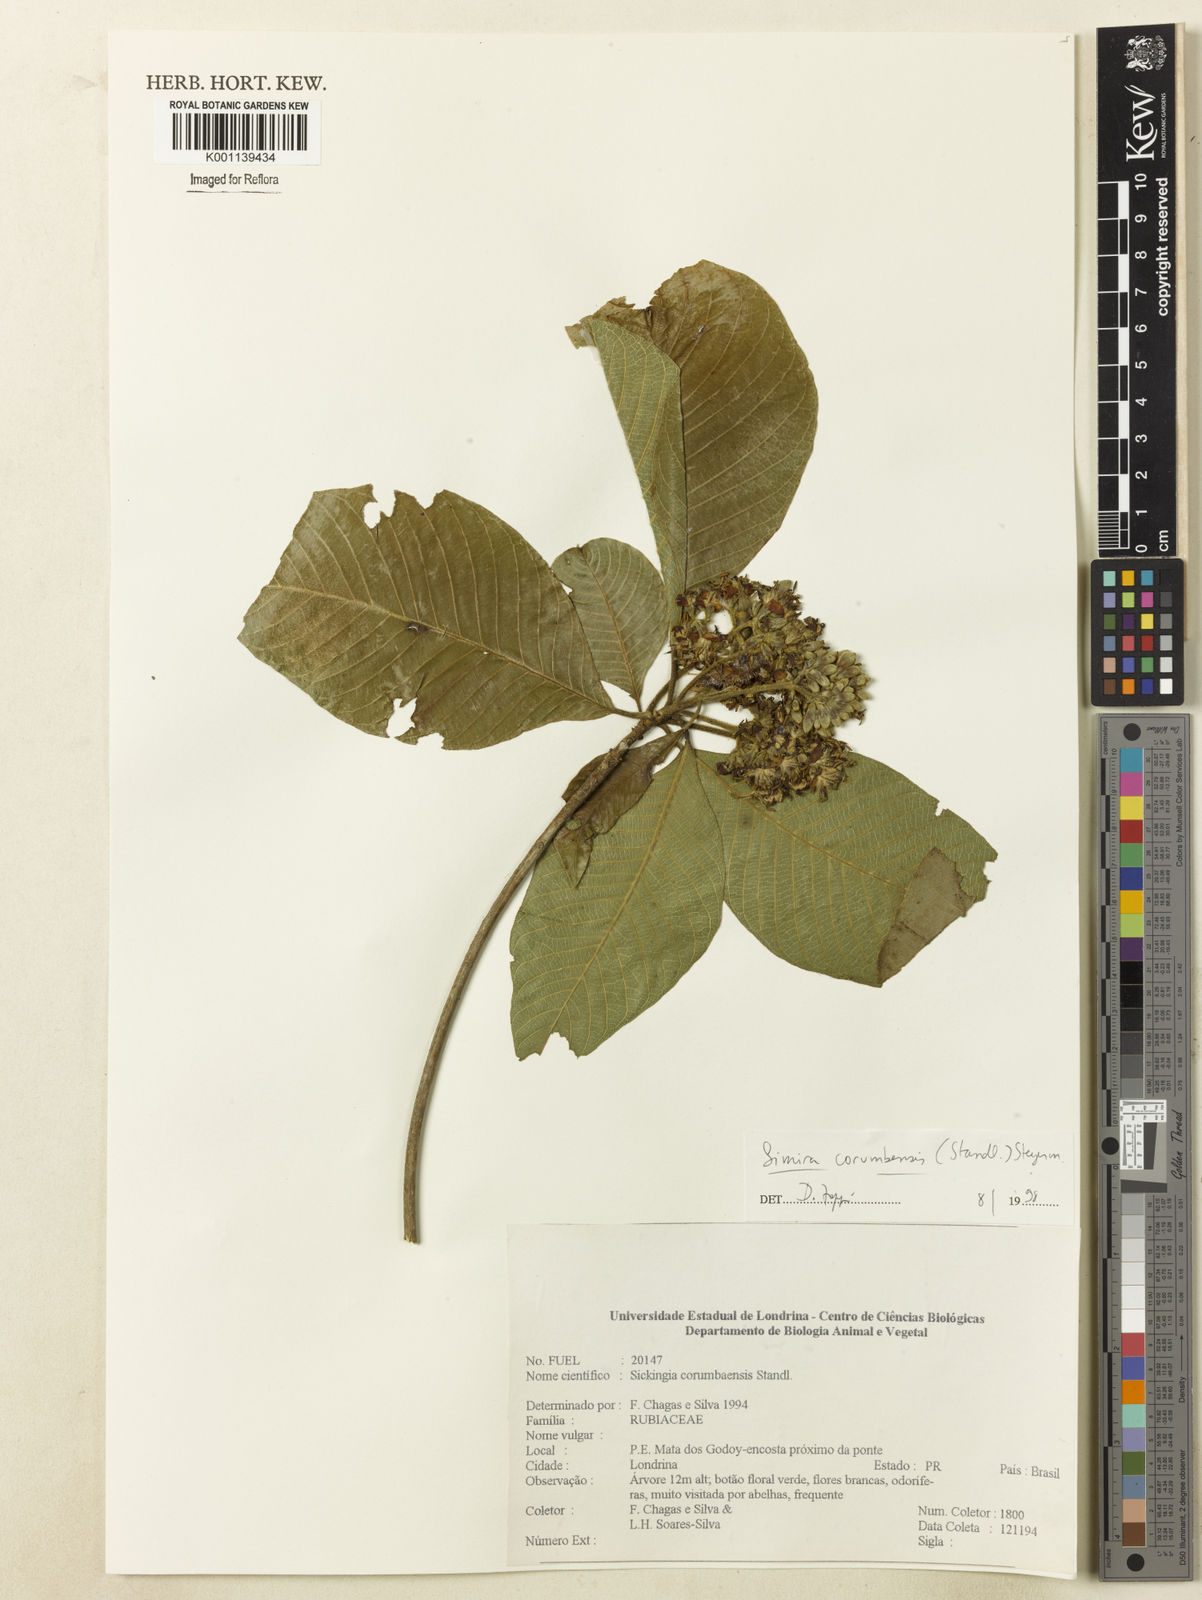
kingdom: Plantae
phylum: Tracheophyta
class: Magnoliopsida
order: Gentianales
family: Rubiaceae
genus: Simira
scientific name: Simira pikia
